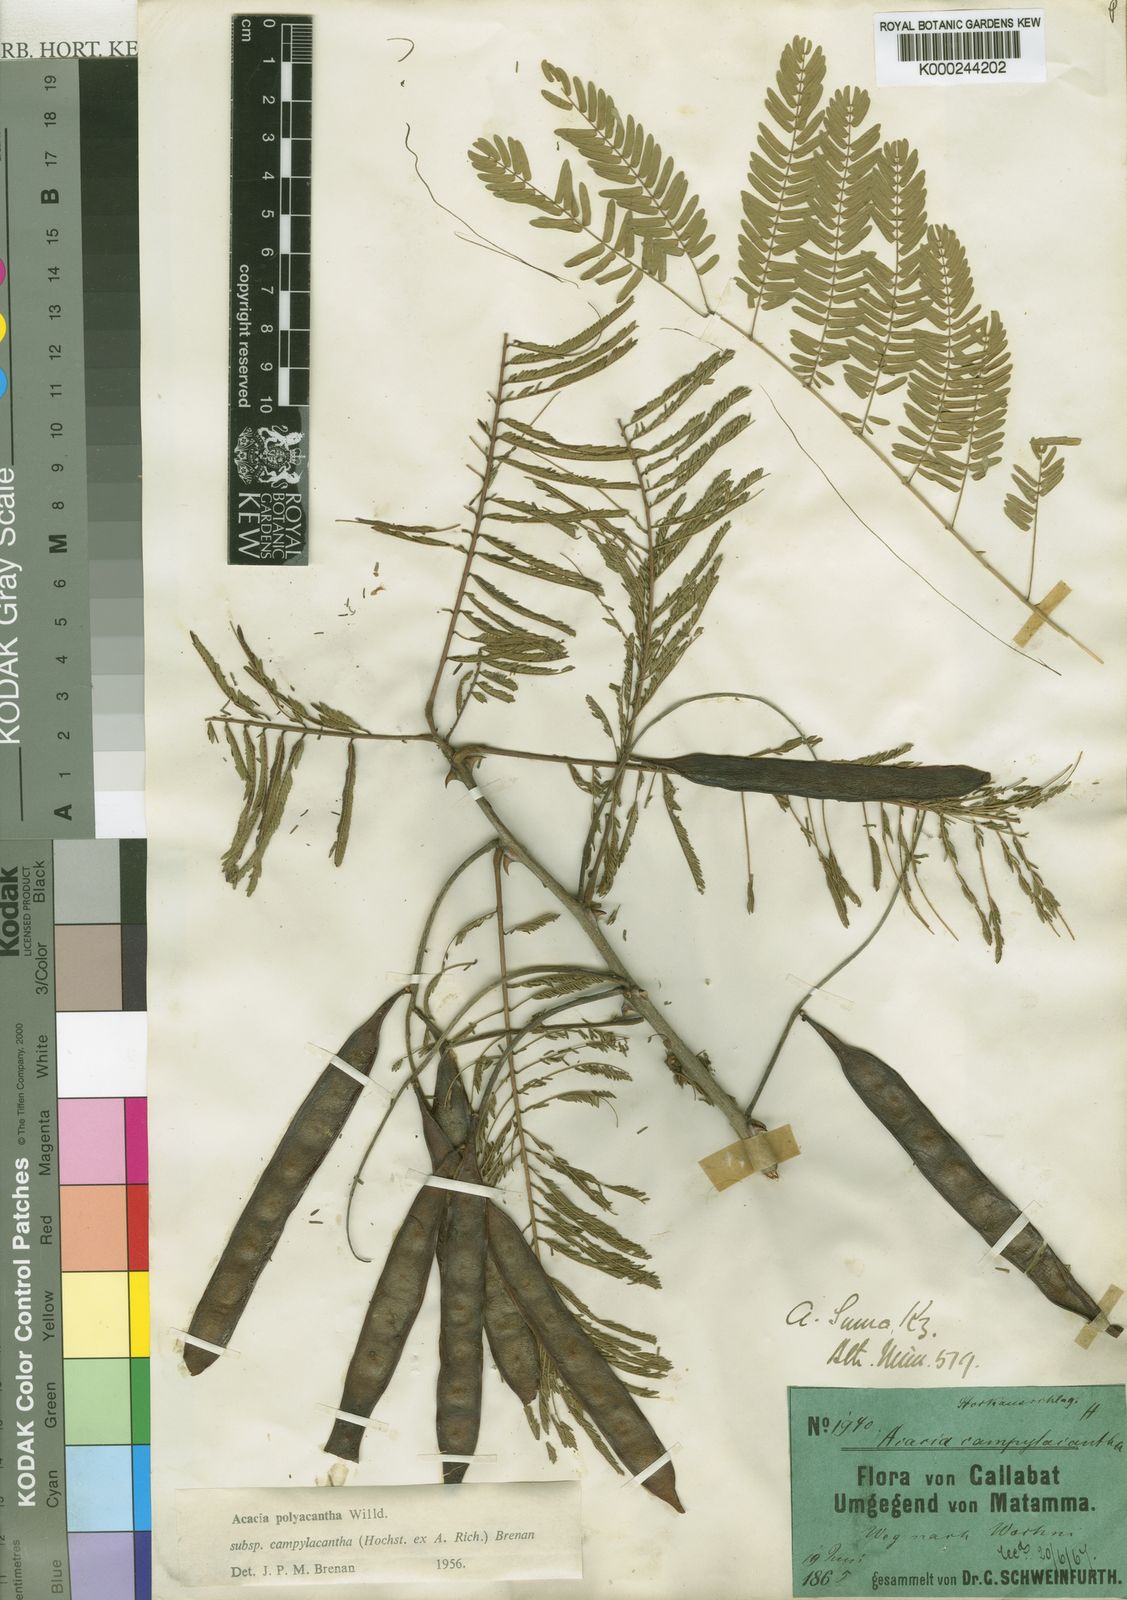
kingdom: Plantae
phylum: Tracheophyta
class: Magnoliopsida
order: Fabales
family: Fabaceae
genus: Senegalia
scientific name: Senegalia polyacantha
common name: Whitethorn
